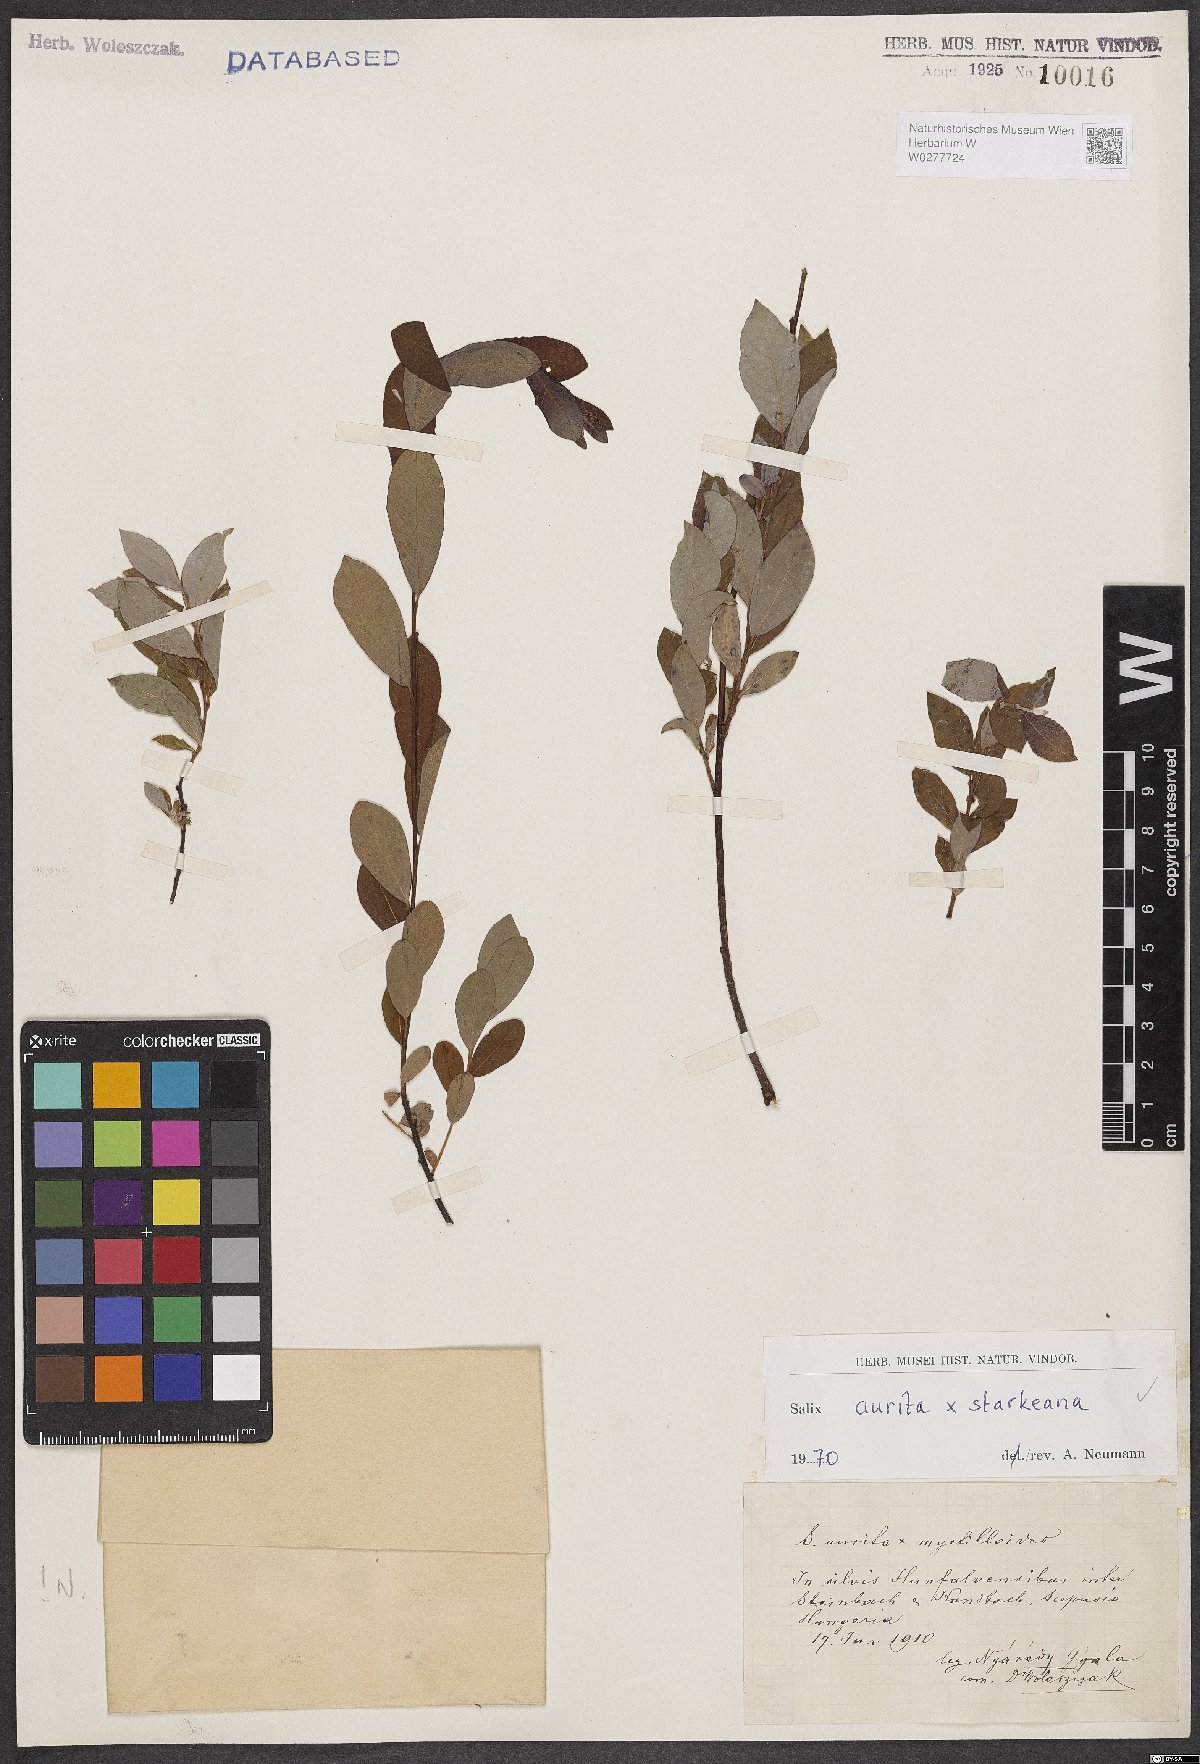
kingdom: Plantae
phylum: Tracheophyta
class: Magnoliopsida
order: Malpighiales
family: Salicaceae
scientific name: Salicaceae
